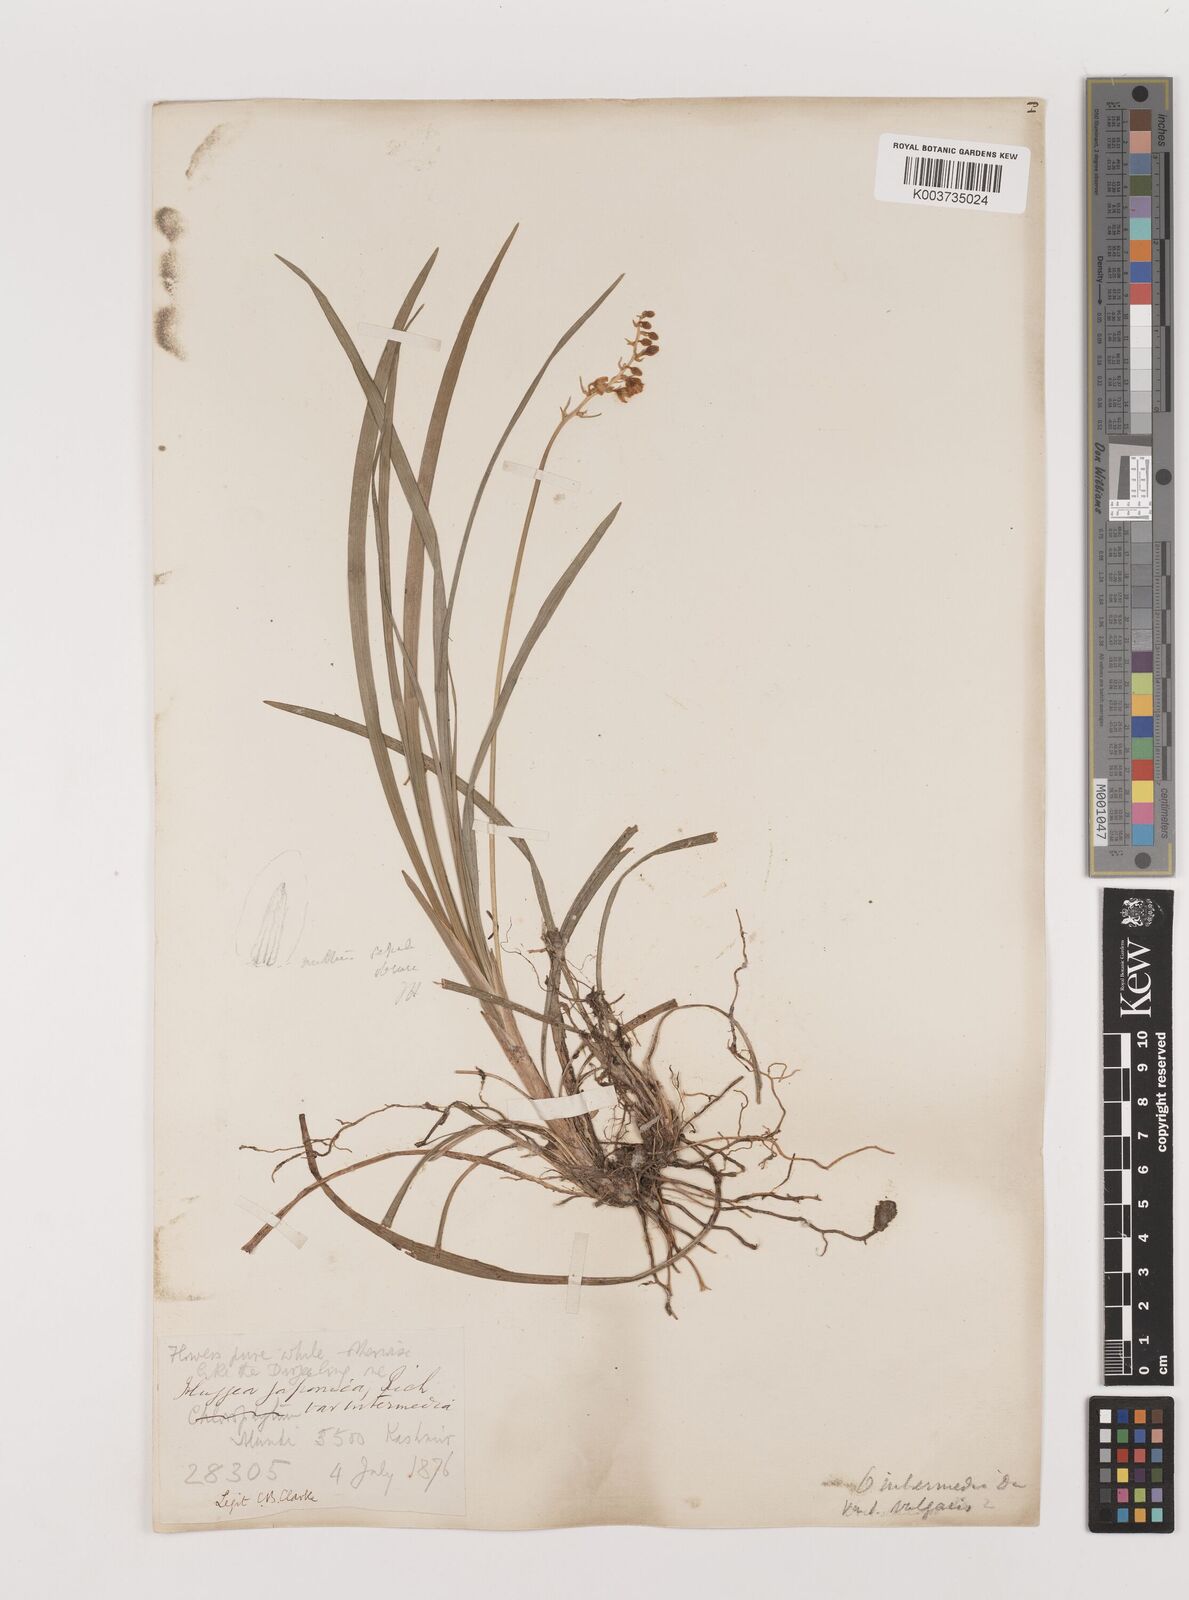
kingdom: Plantae
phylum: Tracheophyta
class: Liliopsida
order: Asparagales
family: Asparagaceae
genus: Ophiopogon
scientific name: Ophiopogon intermedius
